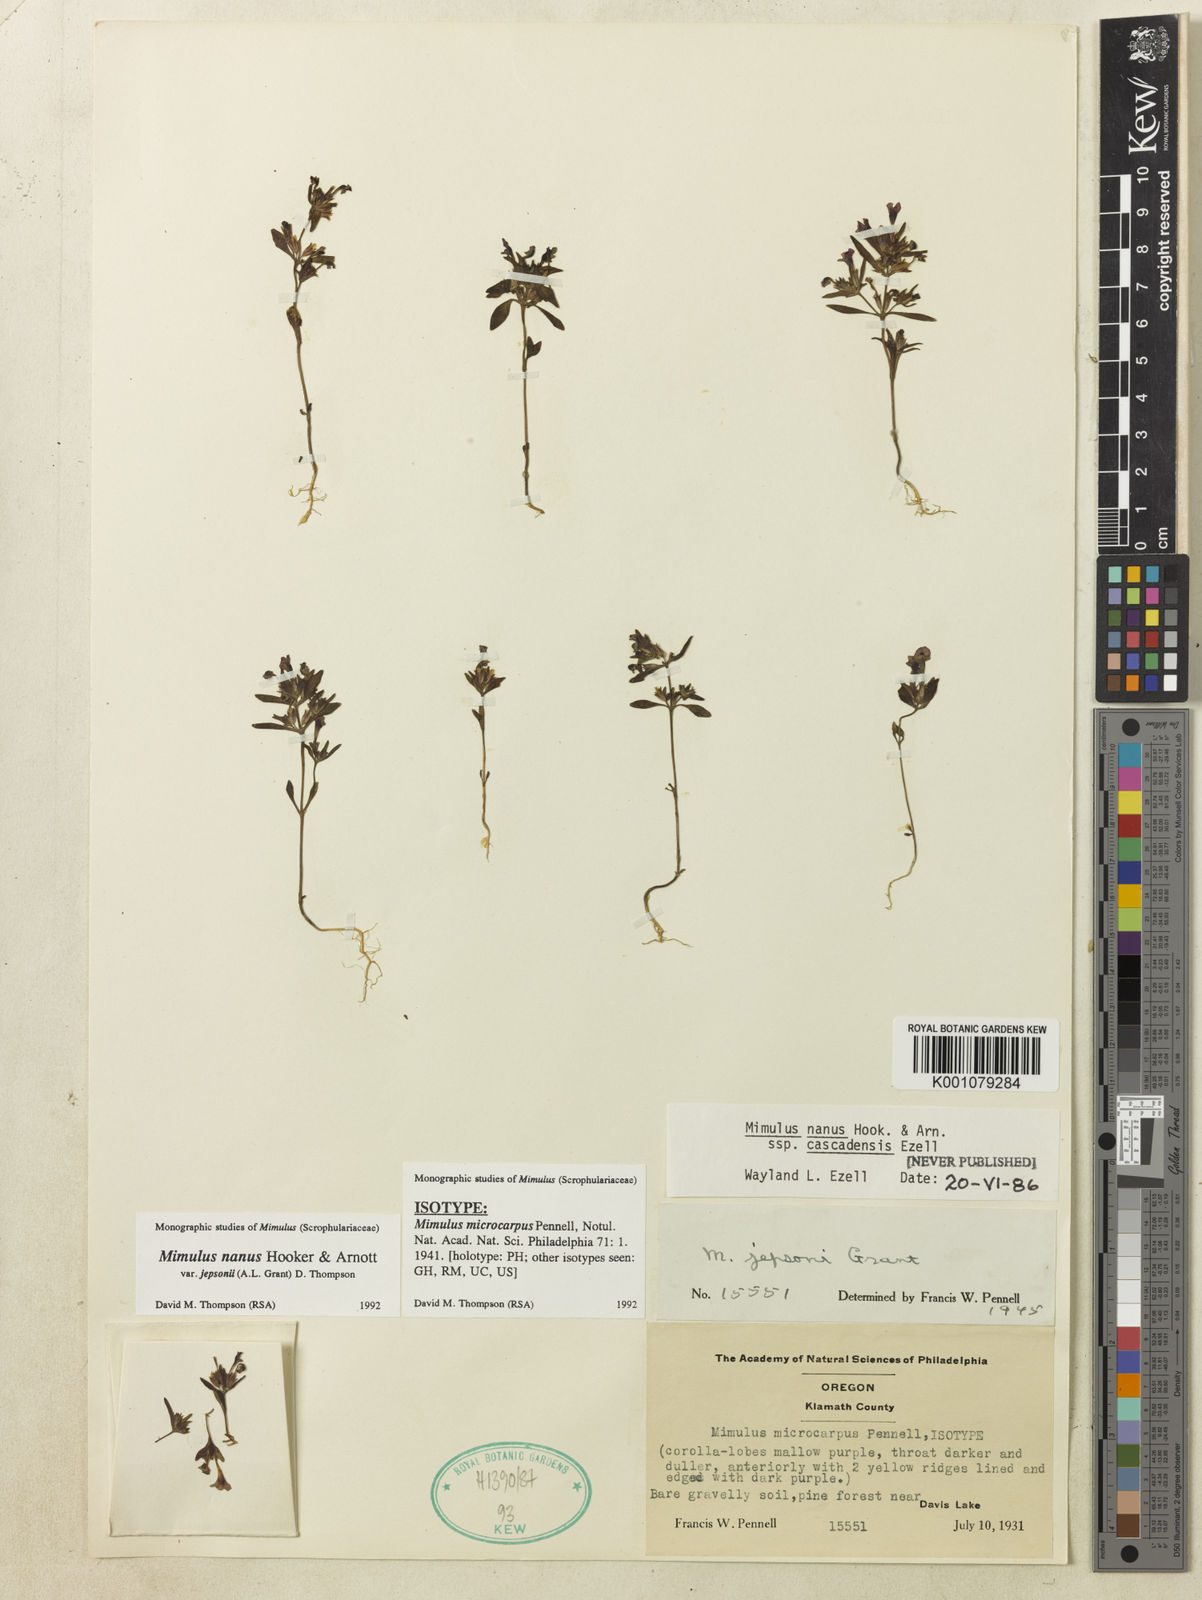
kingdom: Plantae
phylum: Tracheophyta
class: Magnoliopsida
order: Lamiales
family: Phrymaceae
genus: Diplacus
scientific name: Diplacus jepsonii
